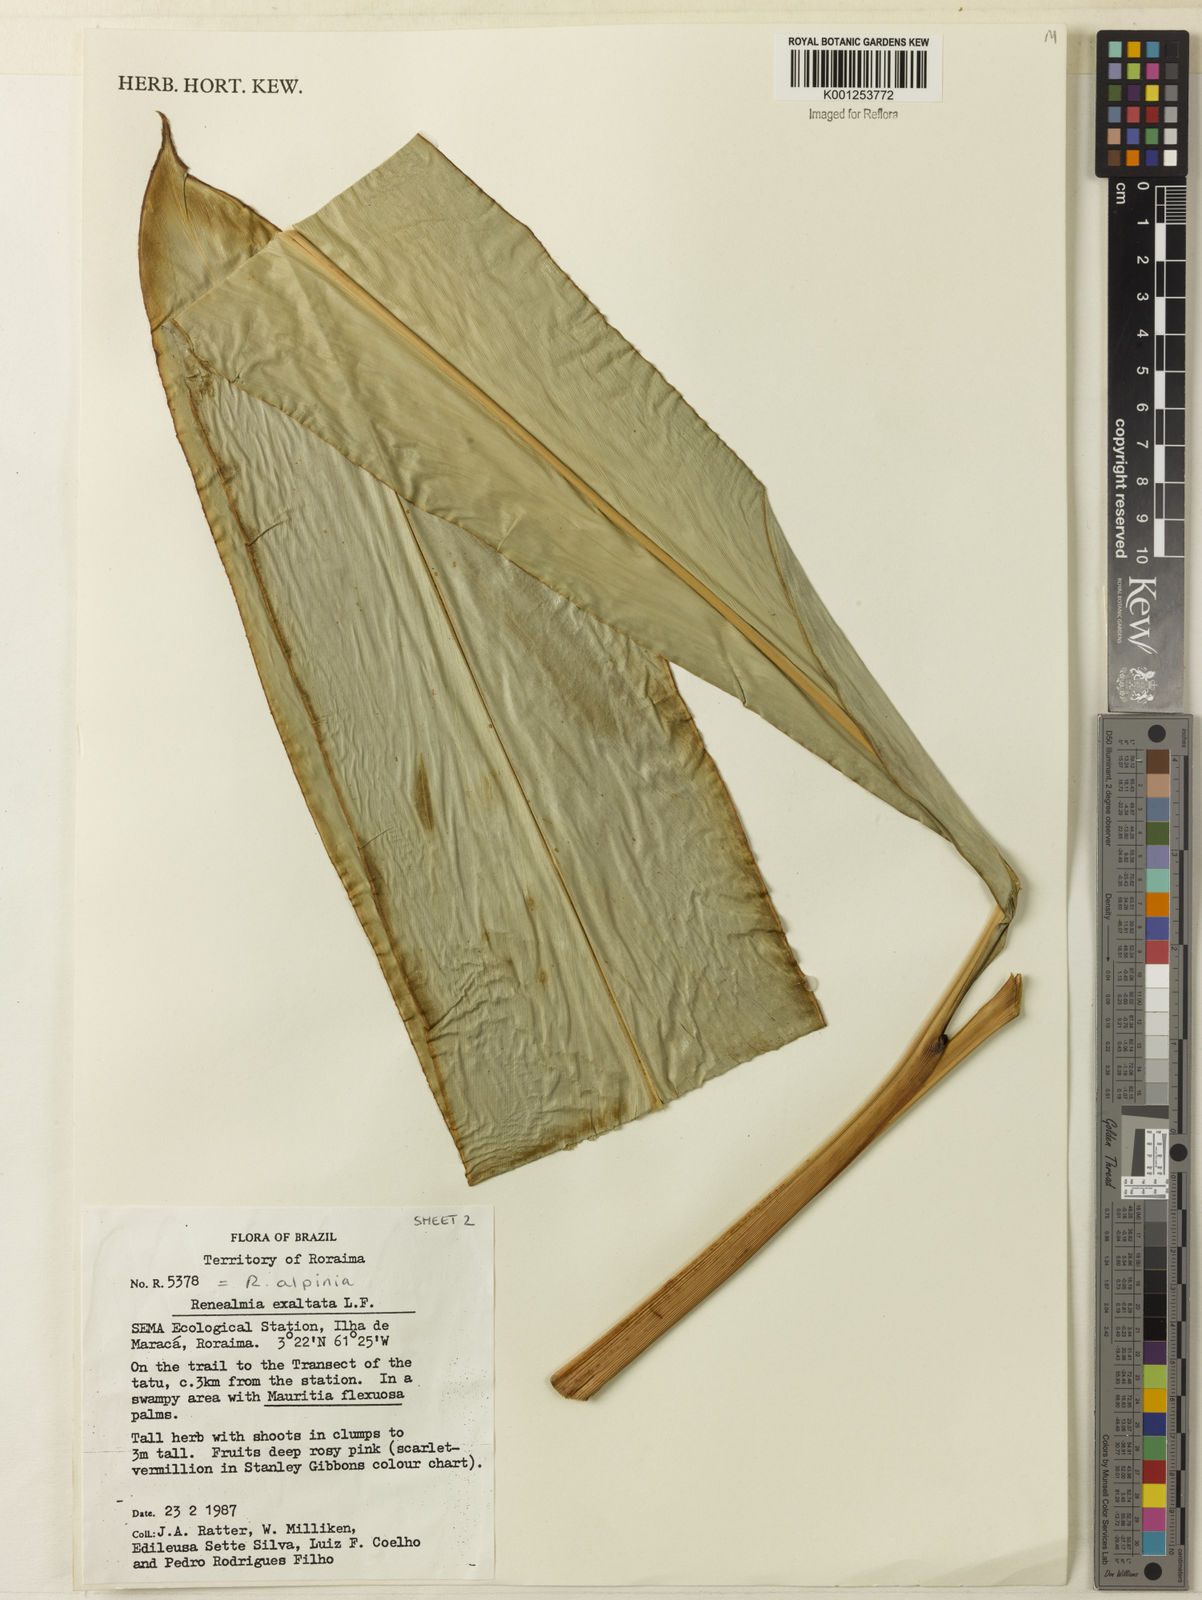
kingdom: Plantae
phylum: Tracheophyta
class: Magnoliopsida
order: Myrtales
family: Melastomataceae
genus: Cincinnobotrys
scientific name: Cincinnobotrys
